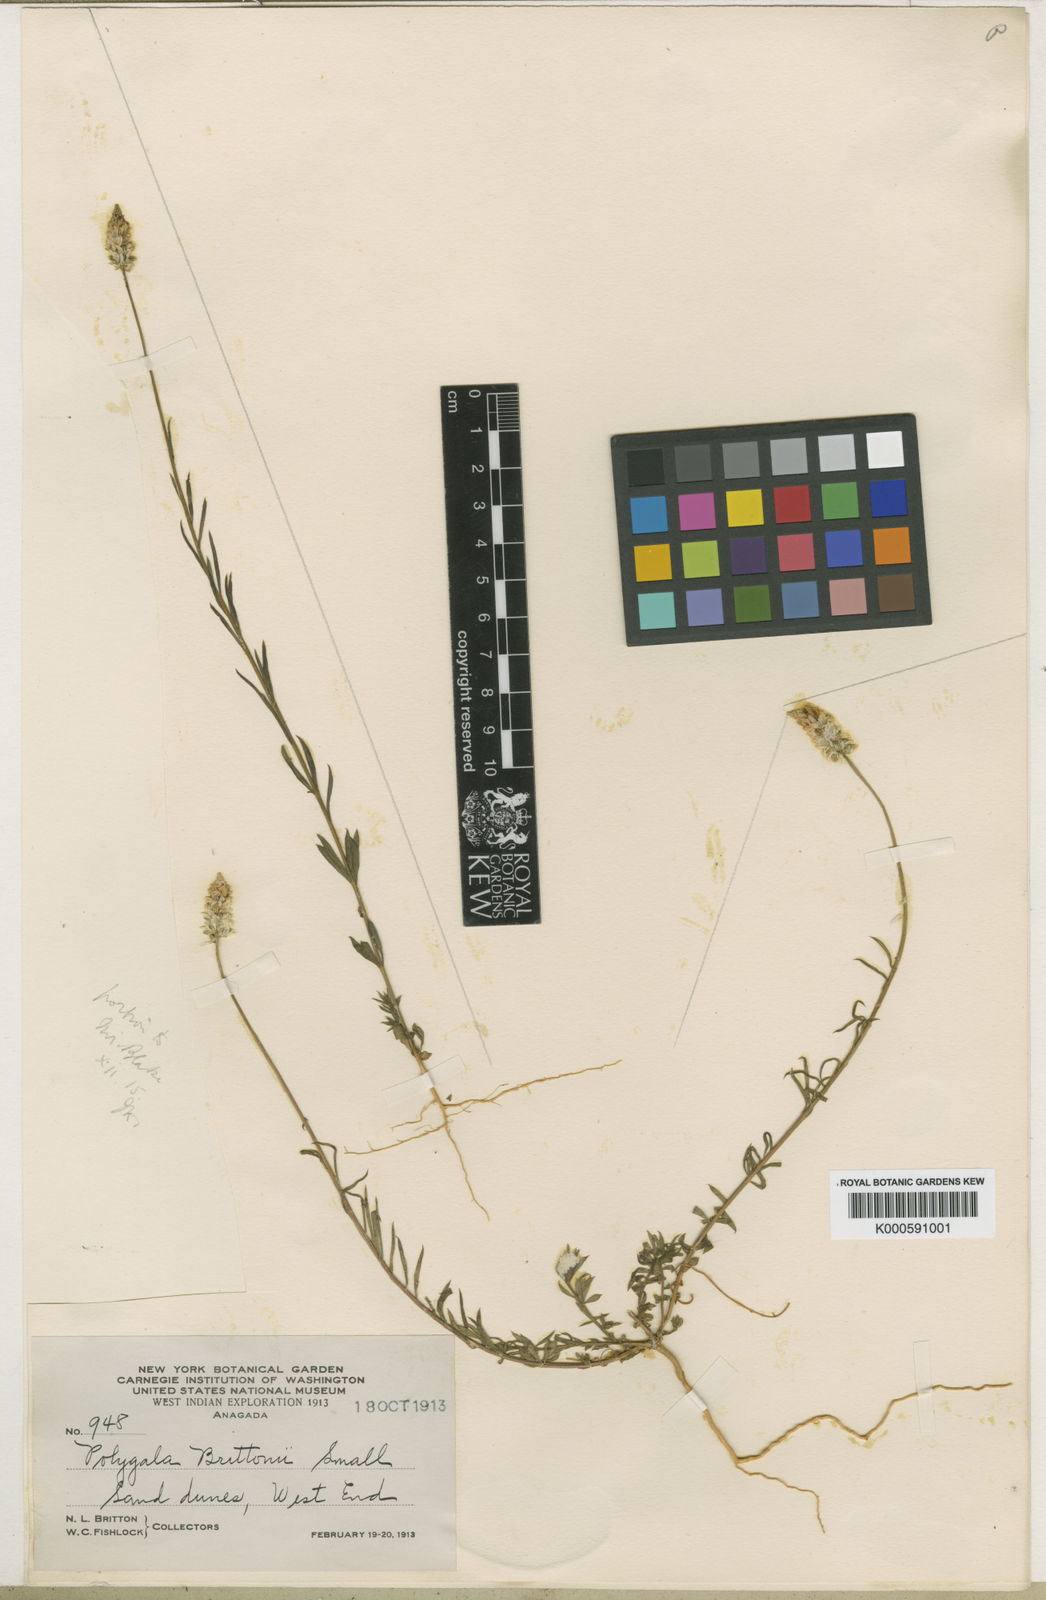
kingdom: Plantae
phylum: Tracheophyta
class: Magnoliopsida
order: Fabales
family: Polygalaceae
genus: Polygala
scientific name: Polygala
